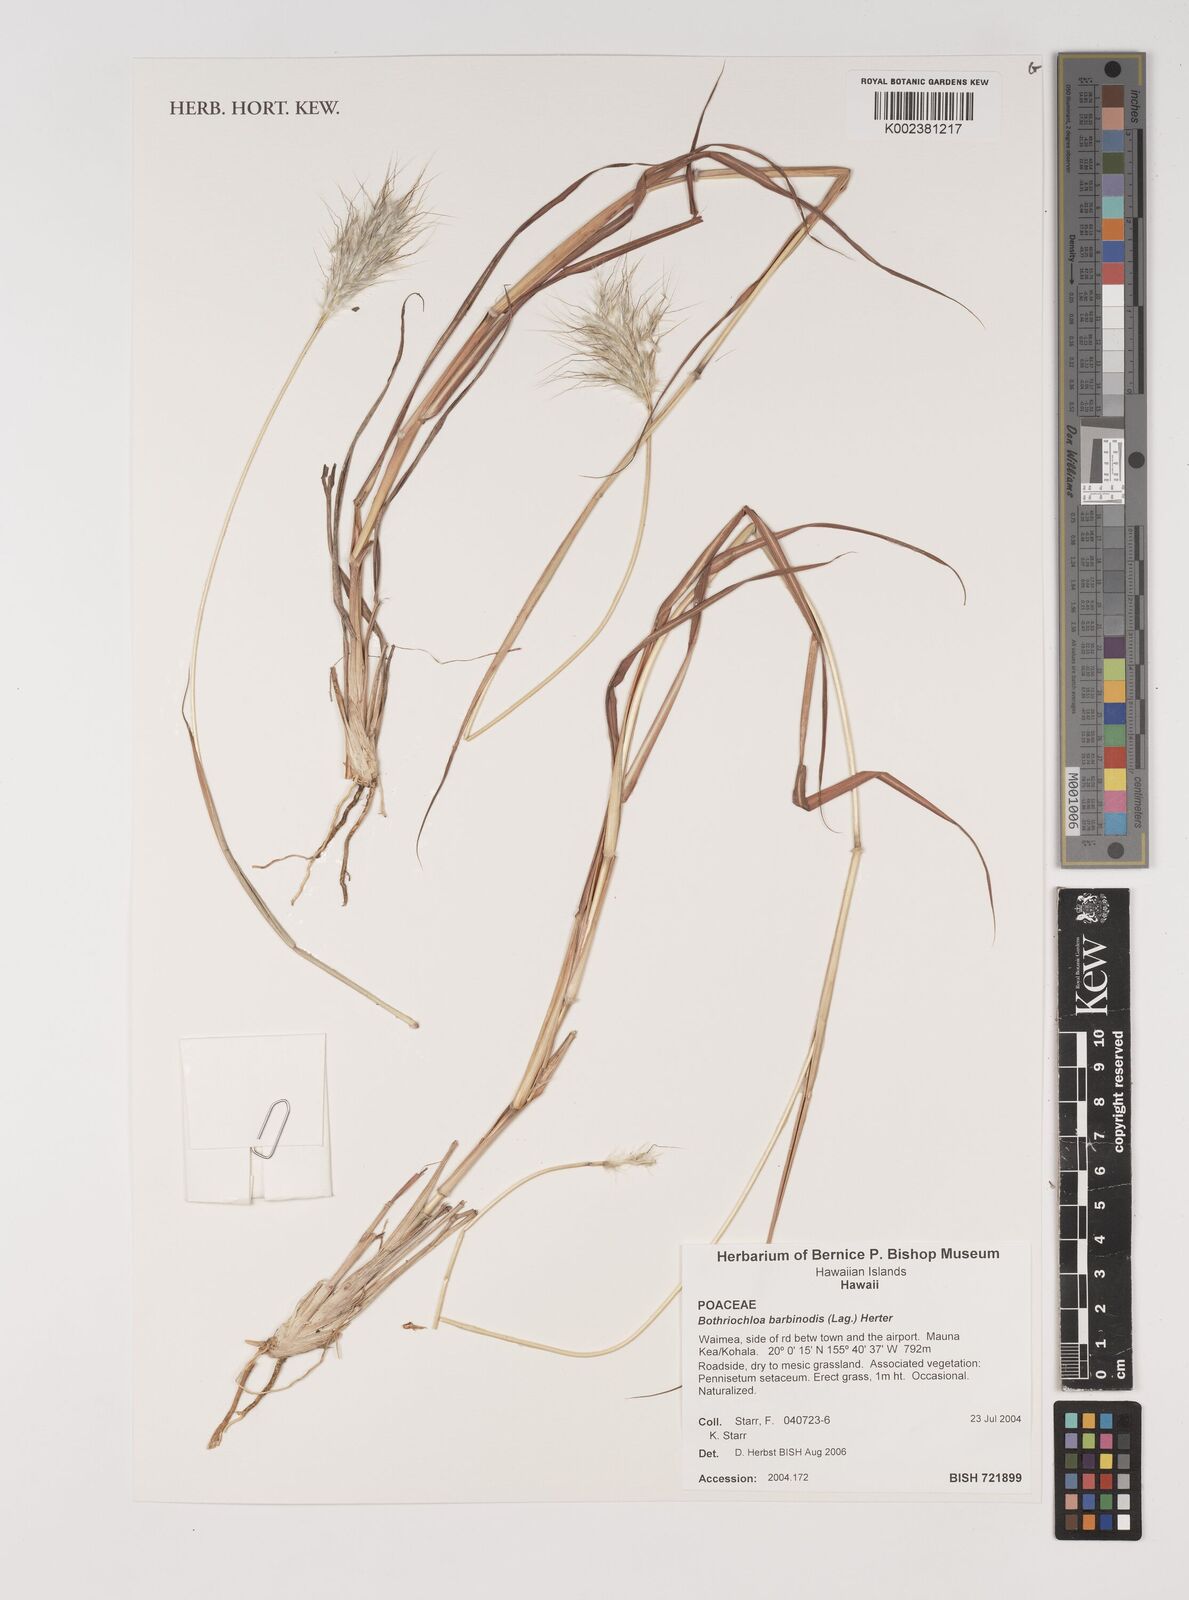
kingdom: Plantae
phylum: Tracheophyta
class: Liliopsida
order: Poales
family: Poaceae
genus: Bothriochloa
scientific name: Bothriochloa barbinodis
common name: Cane bluestem
